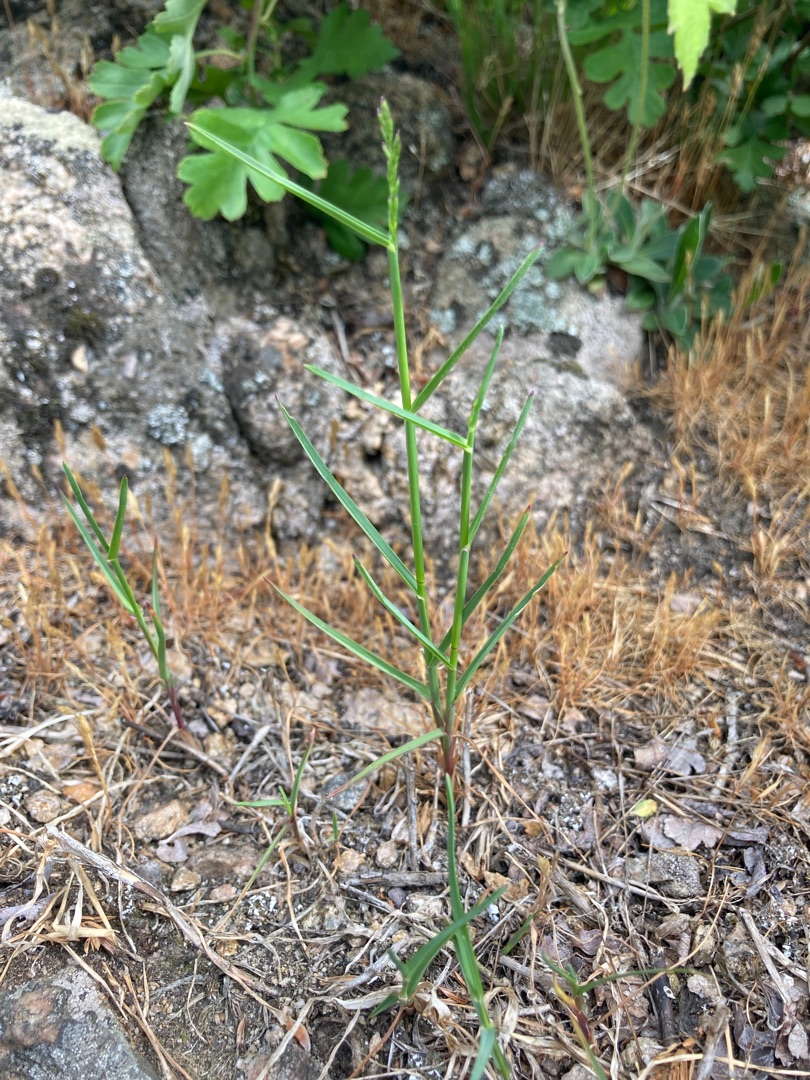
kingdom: Plantae
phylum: Tracheophyta
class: Liliopsida
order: Poales
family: Poaceae
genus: Poa
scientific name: Poa compressa
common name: Fladstrået rapgræs
